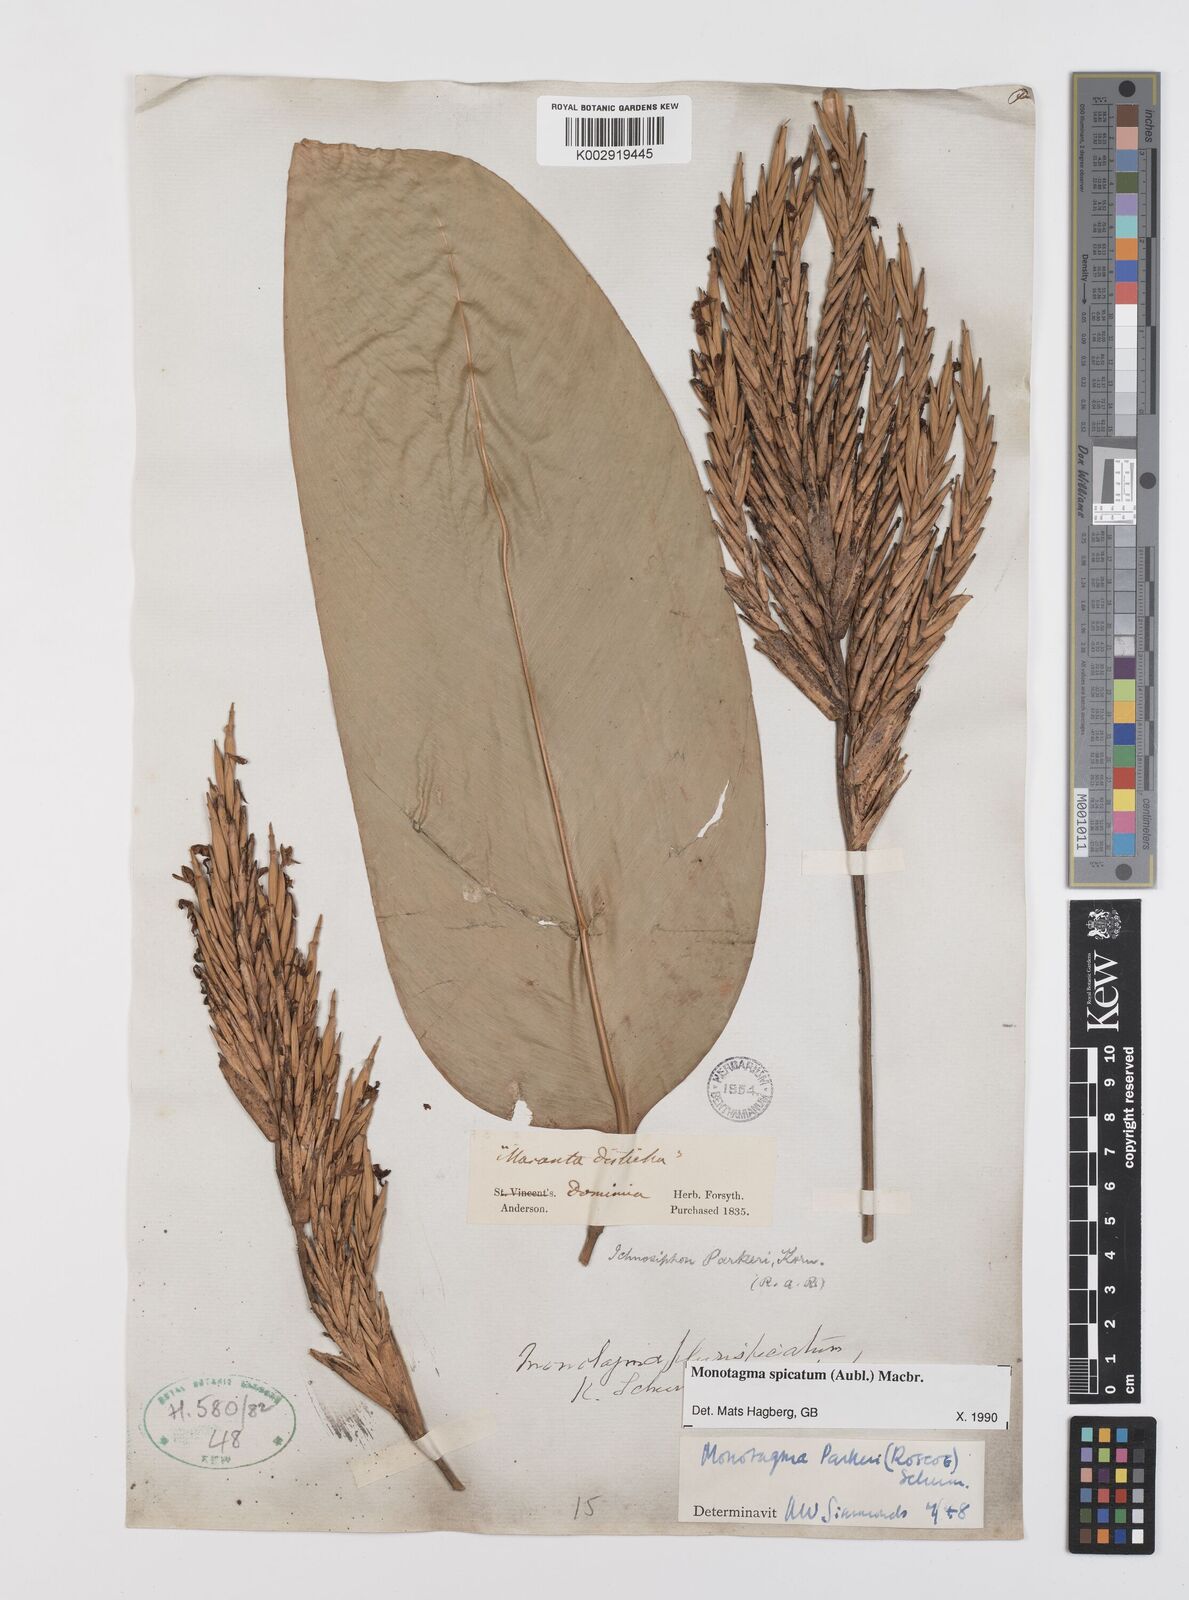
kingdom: Plantae
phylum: Tracheophyta
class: Liliopsida
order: Zingiberales
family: Marantaceae
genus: Monotagma
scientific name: Monotagma spicatum
